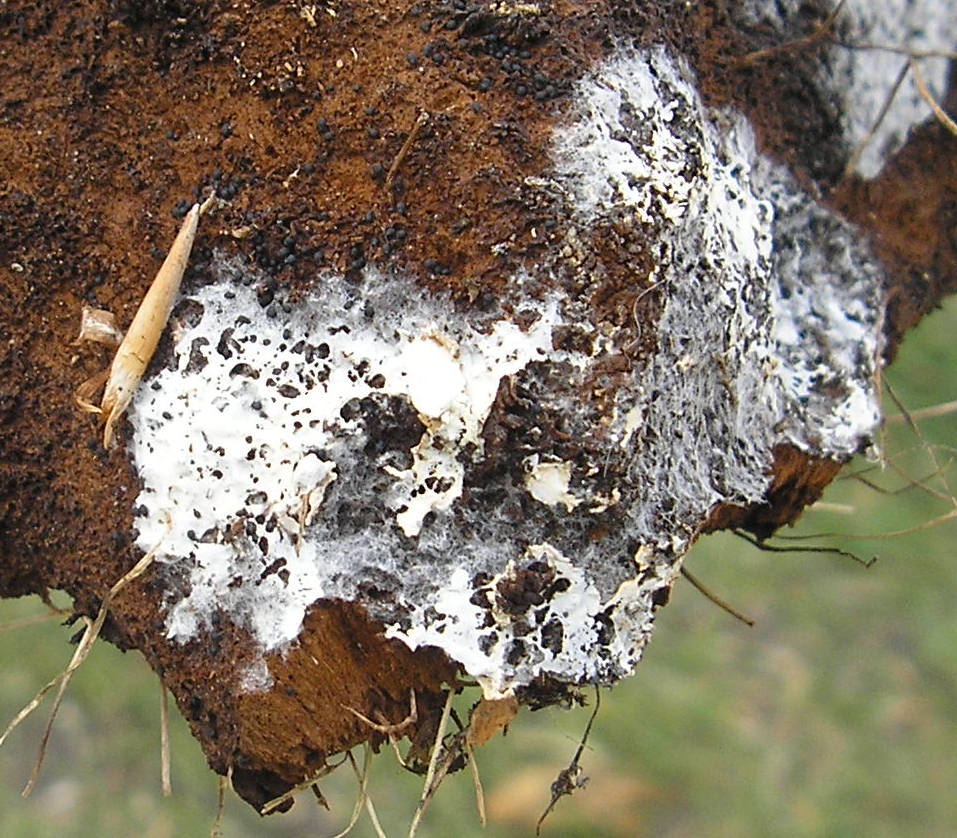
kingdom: Fungi
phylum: Basidiomycota
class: Agaricomycetes
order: Atheliales
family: Atheliaceae
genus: Athelia
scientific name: Athelia neuhoffii
